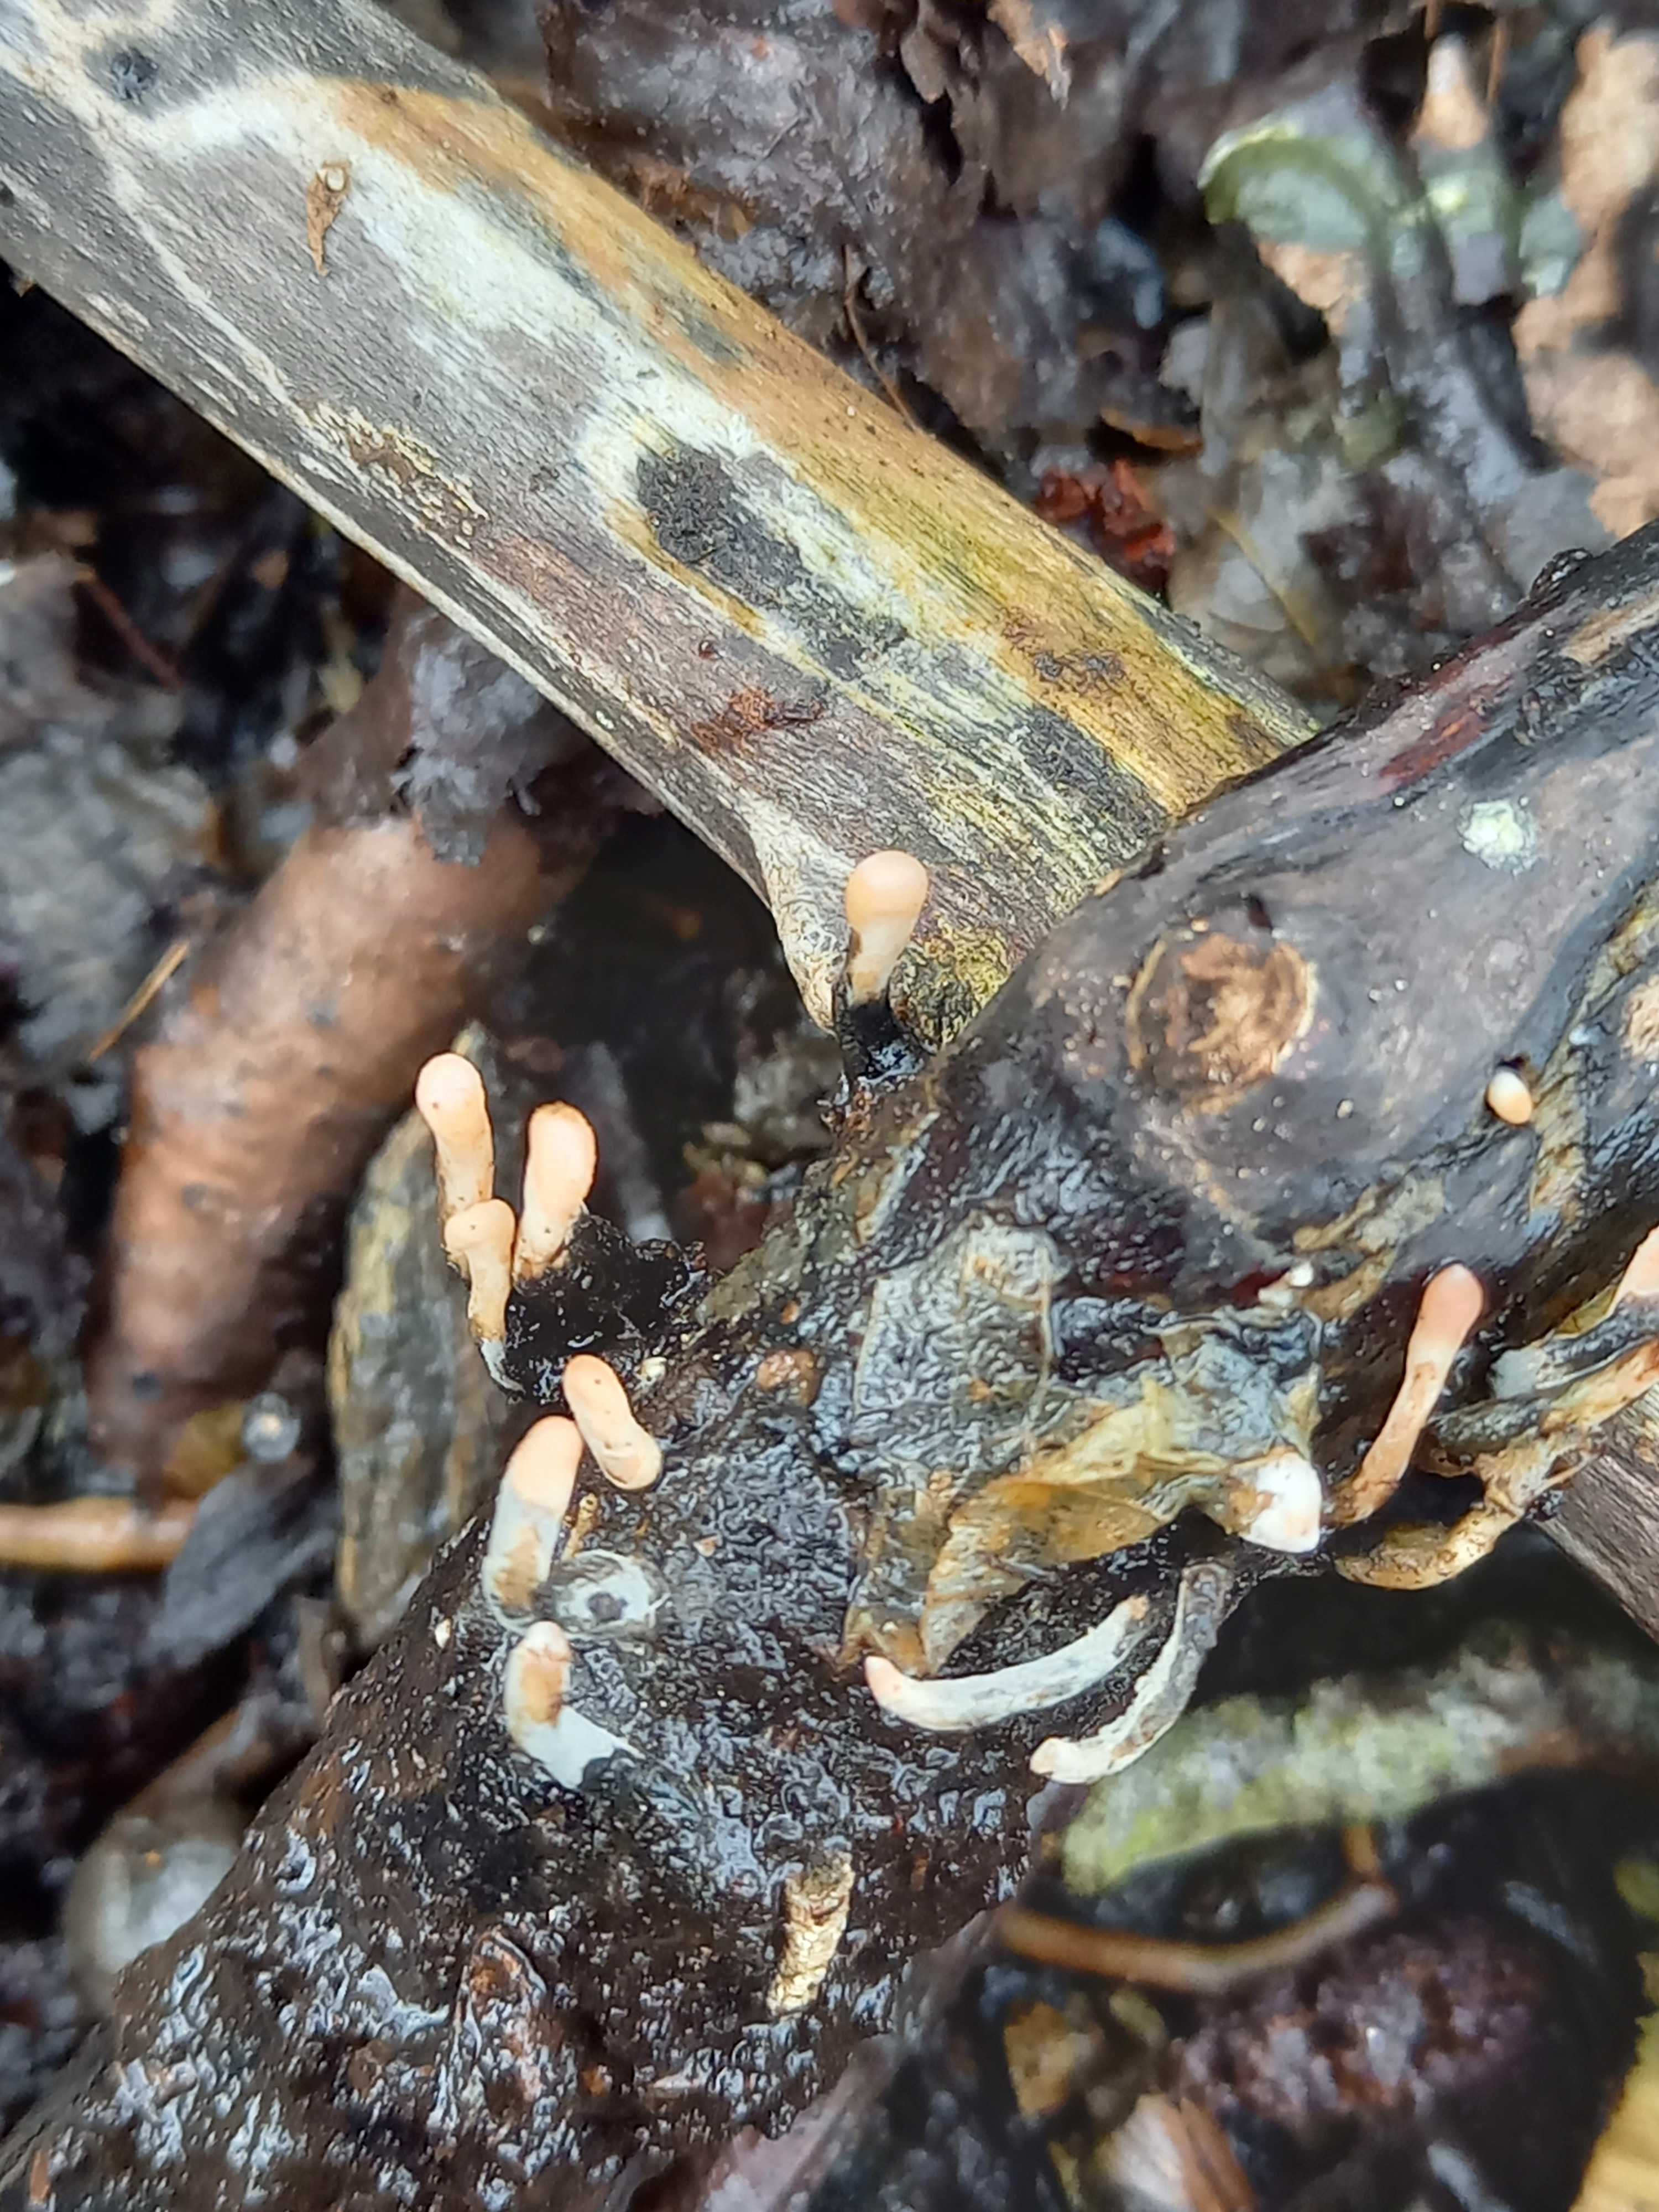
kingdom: Fungi
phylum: Ascomycota
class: Sordariomycetes
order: Xylariales
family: Xylariaceae
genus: Xylaria
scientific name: Xylaria longipes
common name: slank stødsvamp
